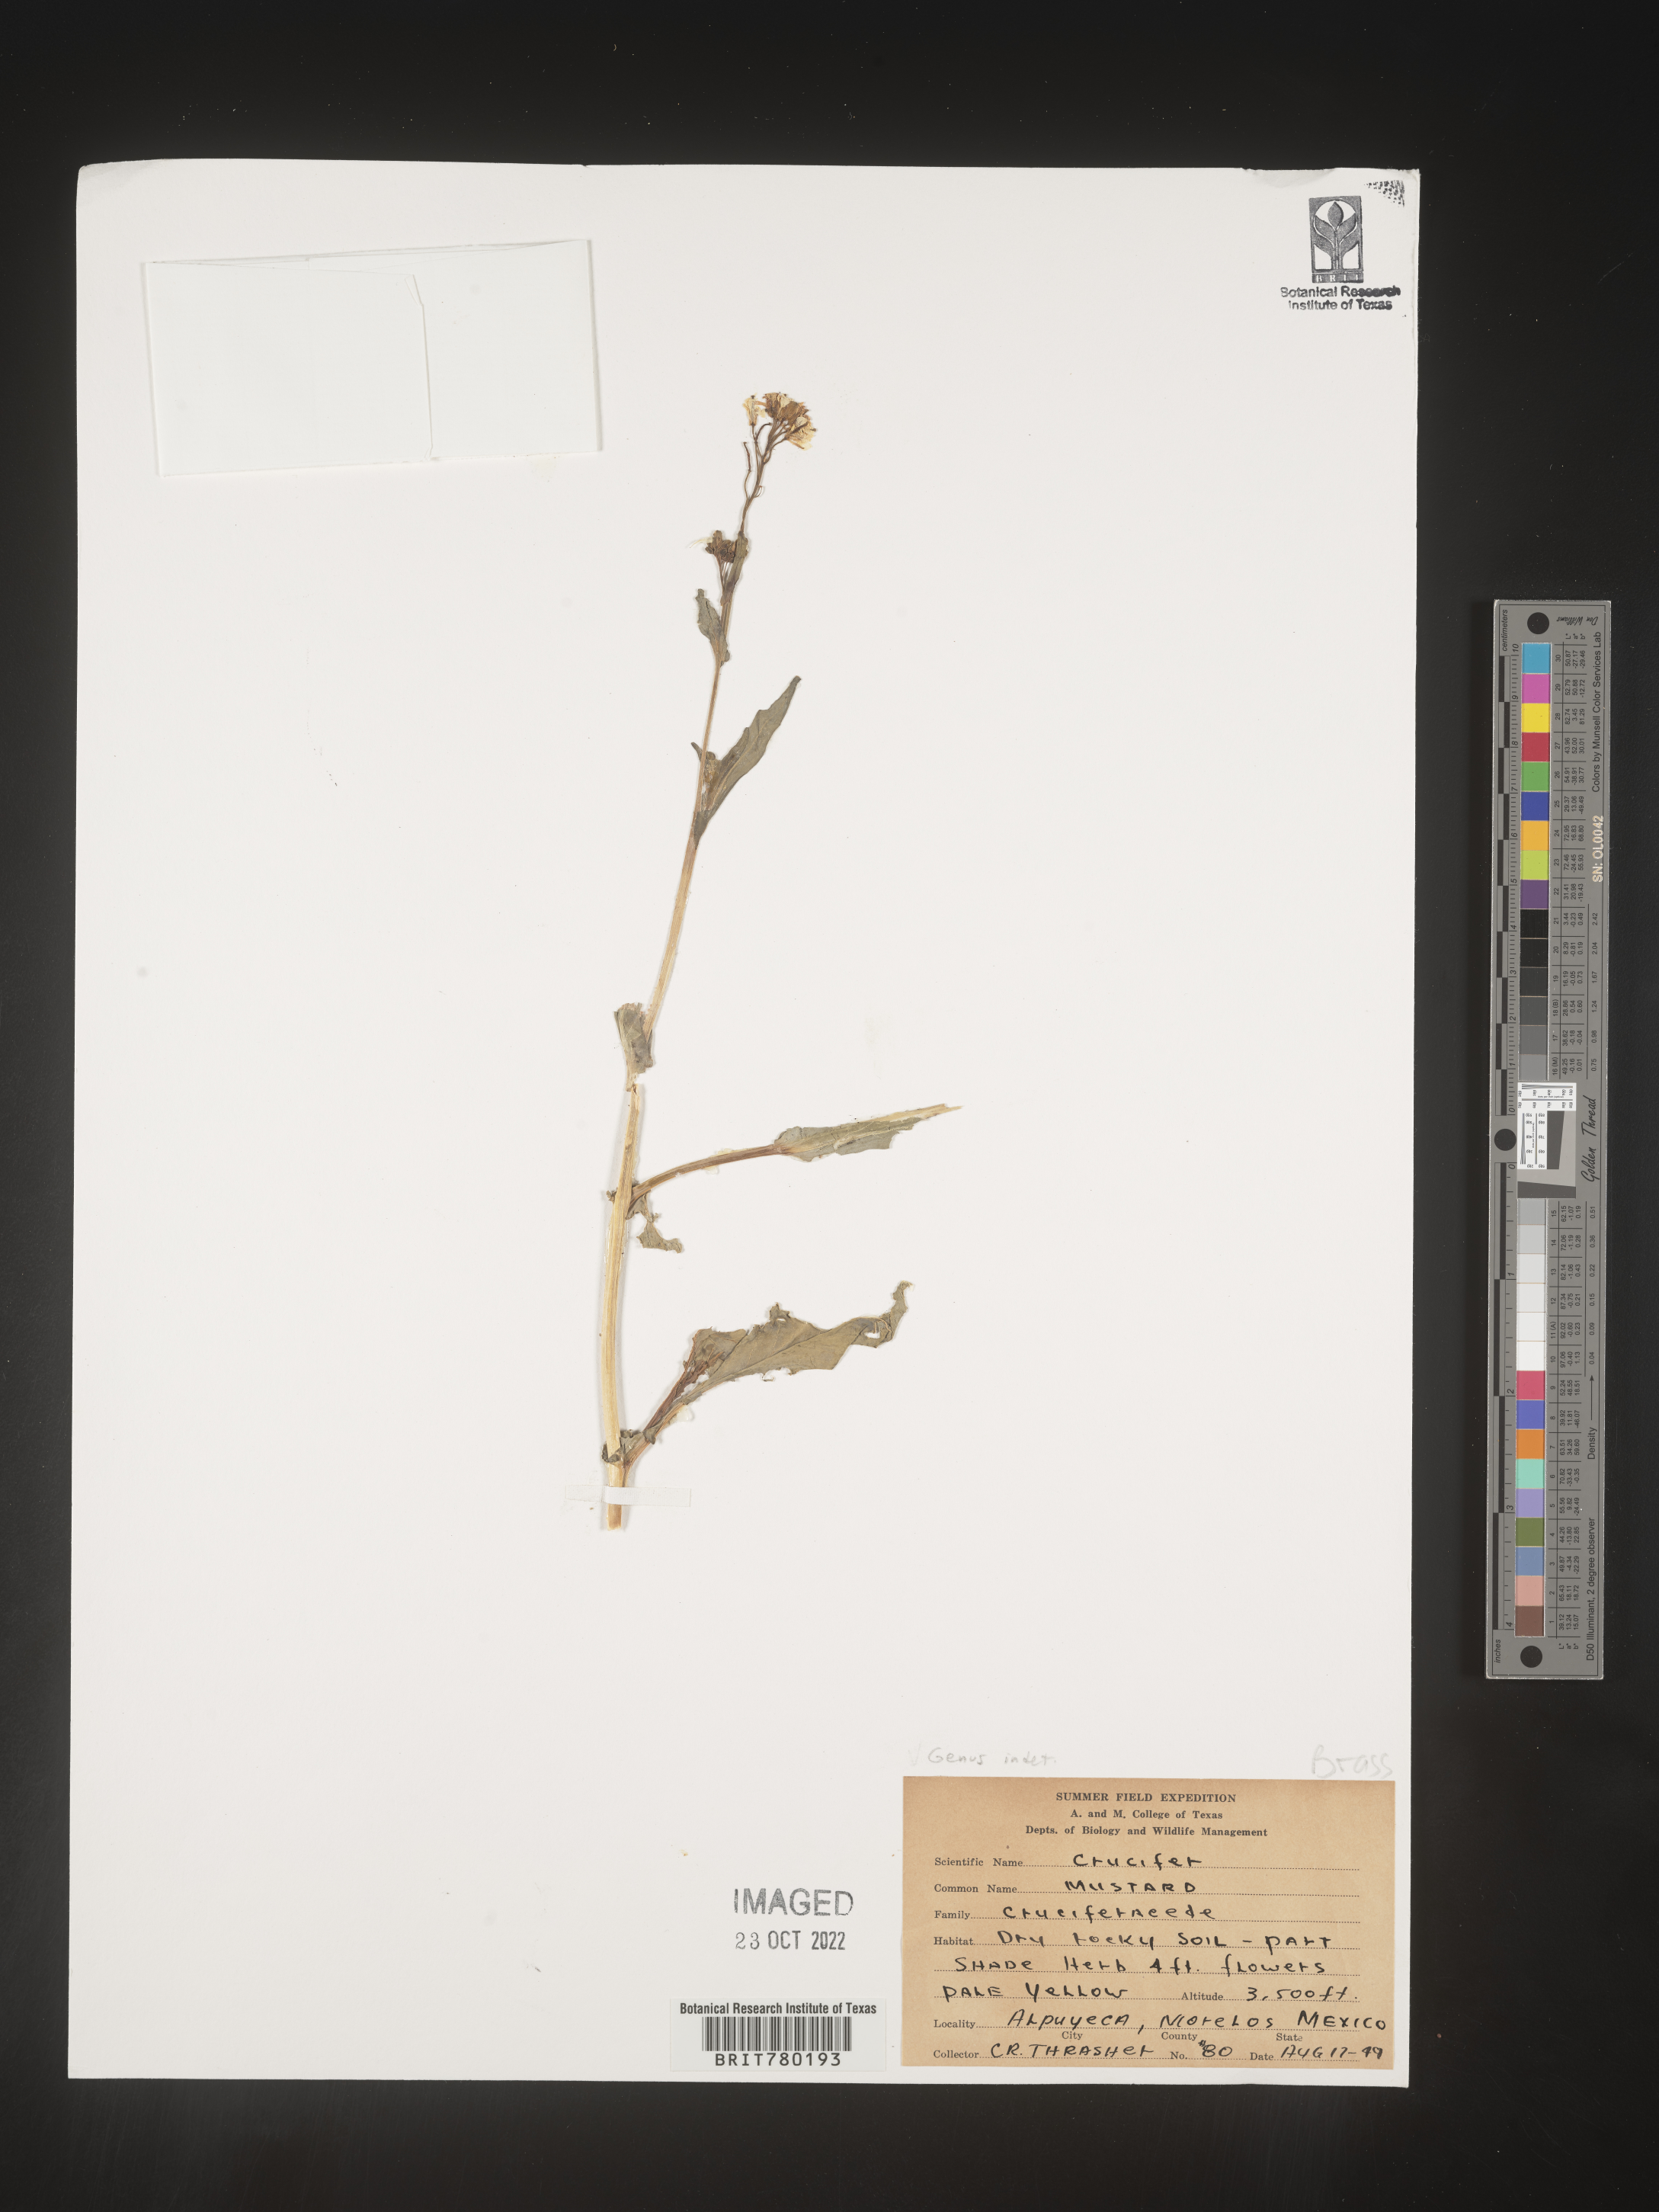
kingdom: Plantae
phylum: Tracheophyta
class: Magnoliopsida
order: Brassicales
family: Brassicaceae
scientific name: Brassicaceae
